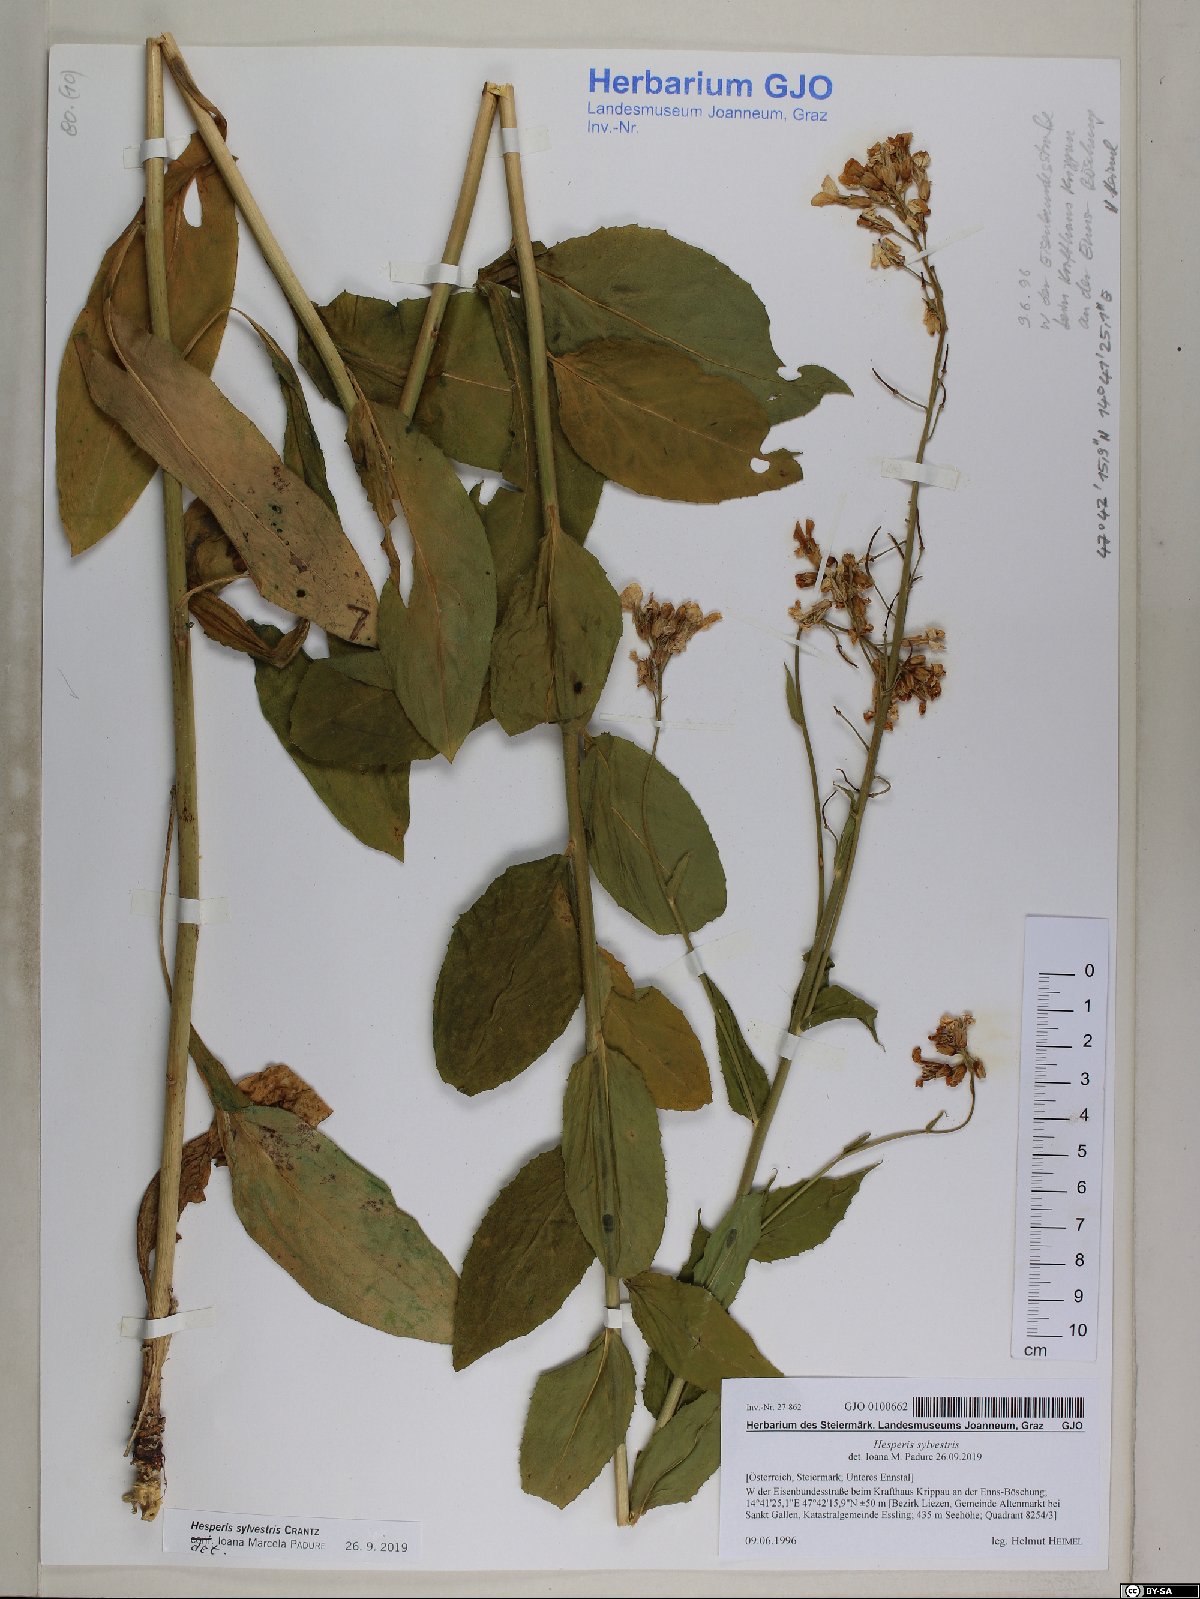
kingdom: Plantae
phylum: Tracheophyta
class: Magnoliopsida
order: Brassicales
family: Brassicaceae
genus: Hesperis
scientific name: Hesperis sylvestris
